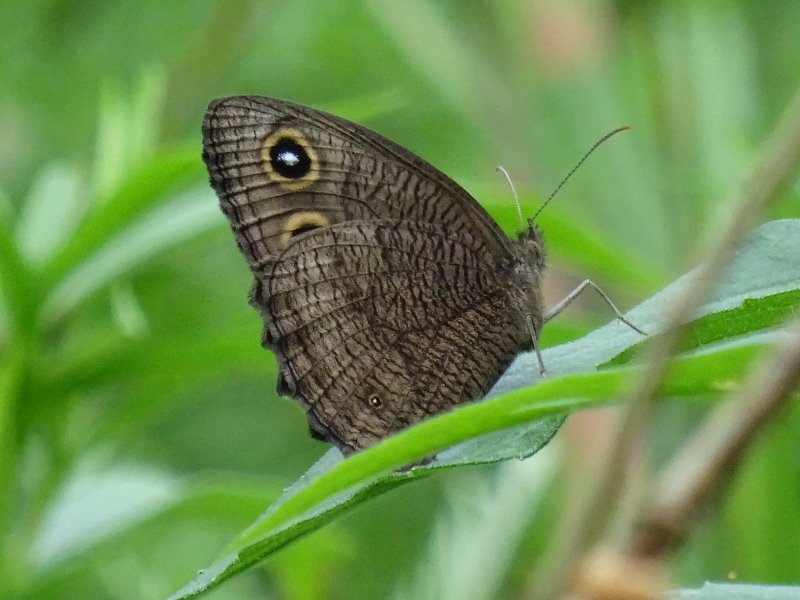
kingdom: Animalia
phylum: Arthropoda
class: Insecta
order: Lepidoptera
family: Nymphalidae
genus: Cercyonis
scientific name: Cercyonis pegala
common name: Common Wood-Nymph
